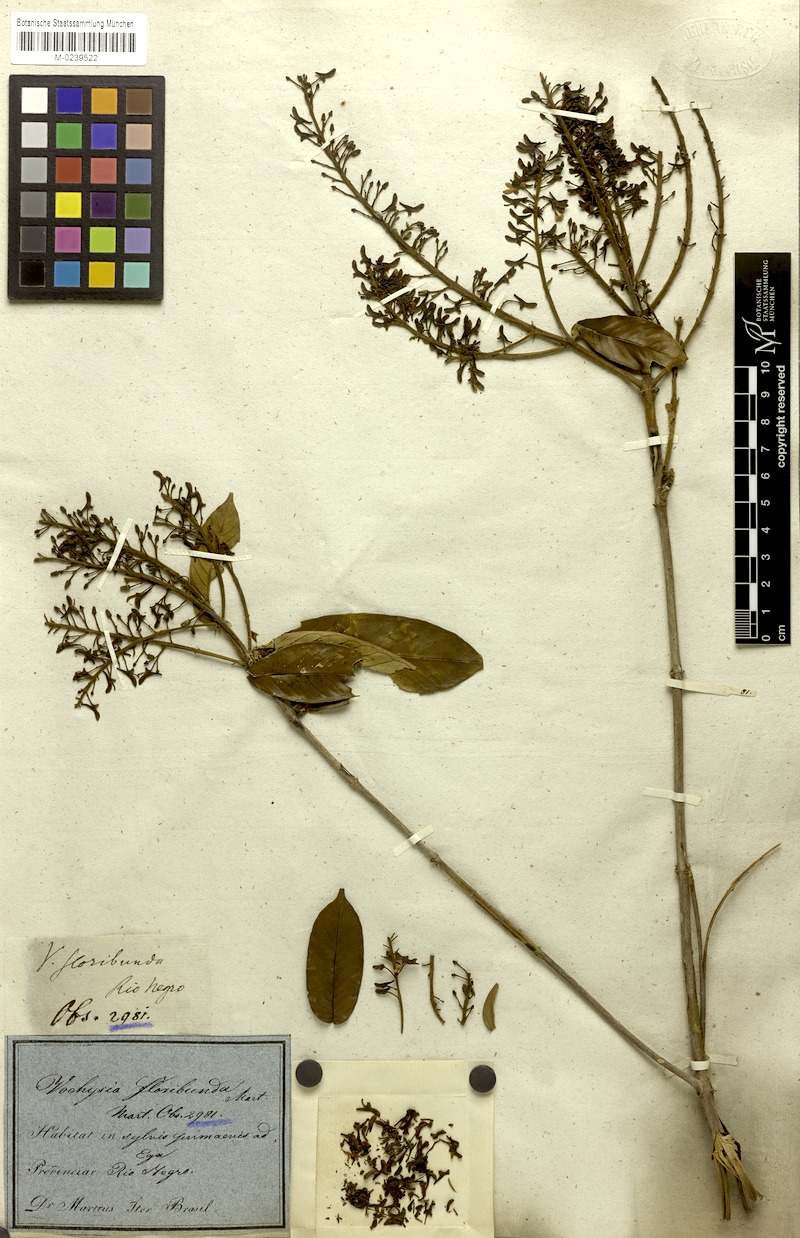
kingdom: Plantae
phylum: Tracheophyta
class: Magnoliopsida
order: Myrtales
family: Vochysiaceae
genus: Vochysia
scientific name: Vochysia floribunda
